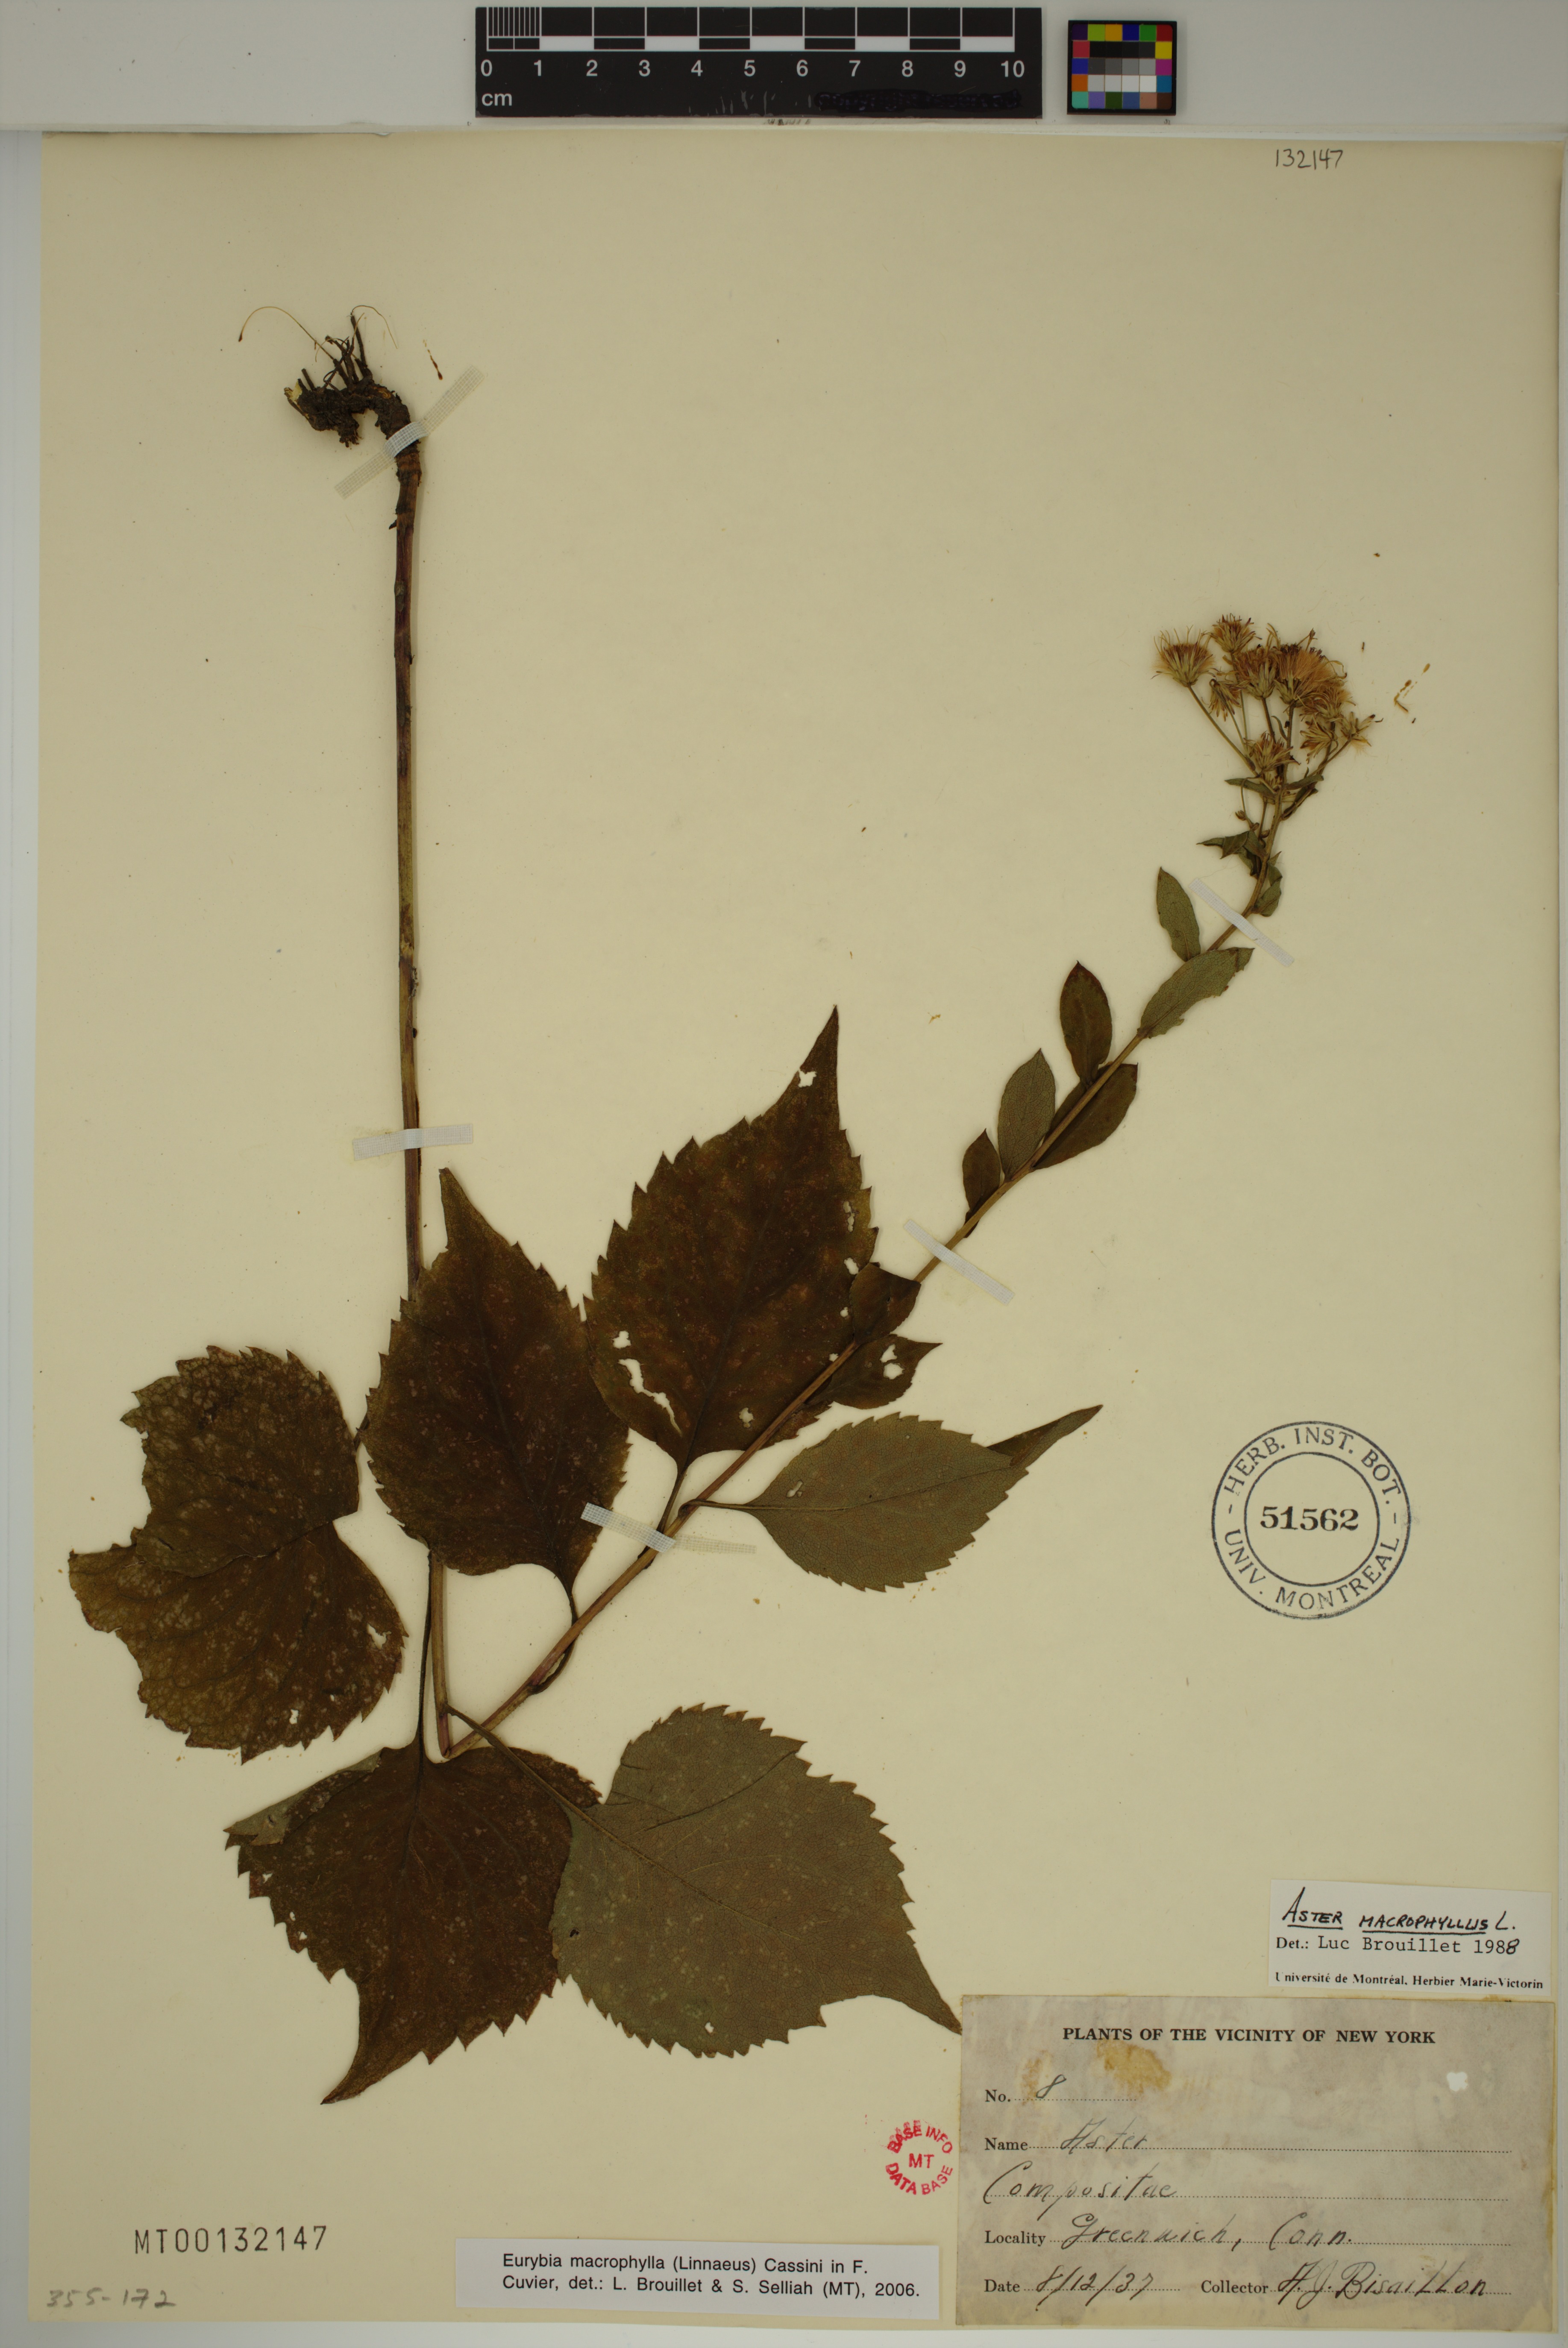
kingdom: Plantae
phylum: Tracheophyta
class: Magnoliopsida
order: Asterales
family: Asteraceae
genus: Eurybia
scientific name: Eurybia macrophylla
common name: Big-leaved aster
